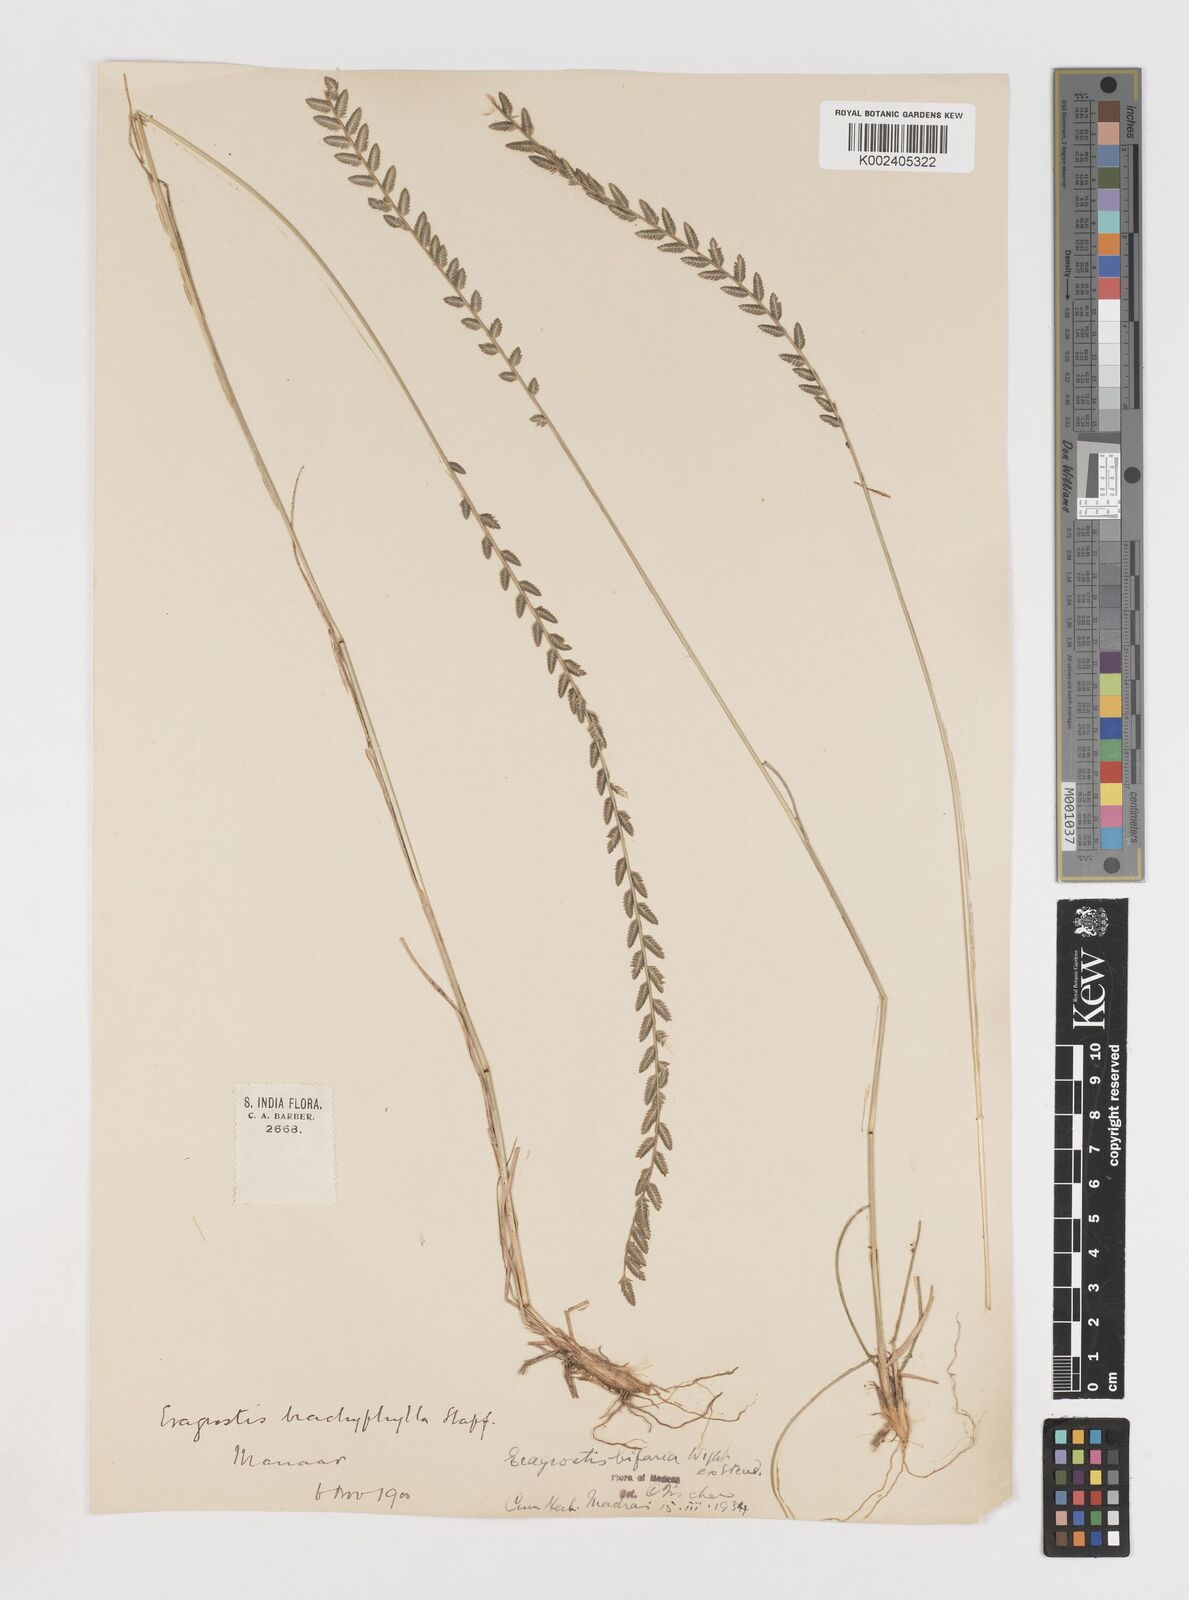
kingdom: Plantae
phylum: Tracheophyta
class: Liliopsida
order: Poales
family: Poaceae
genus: Eragrostiella
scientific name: Eragrostiella bifaria
